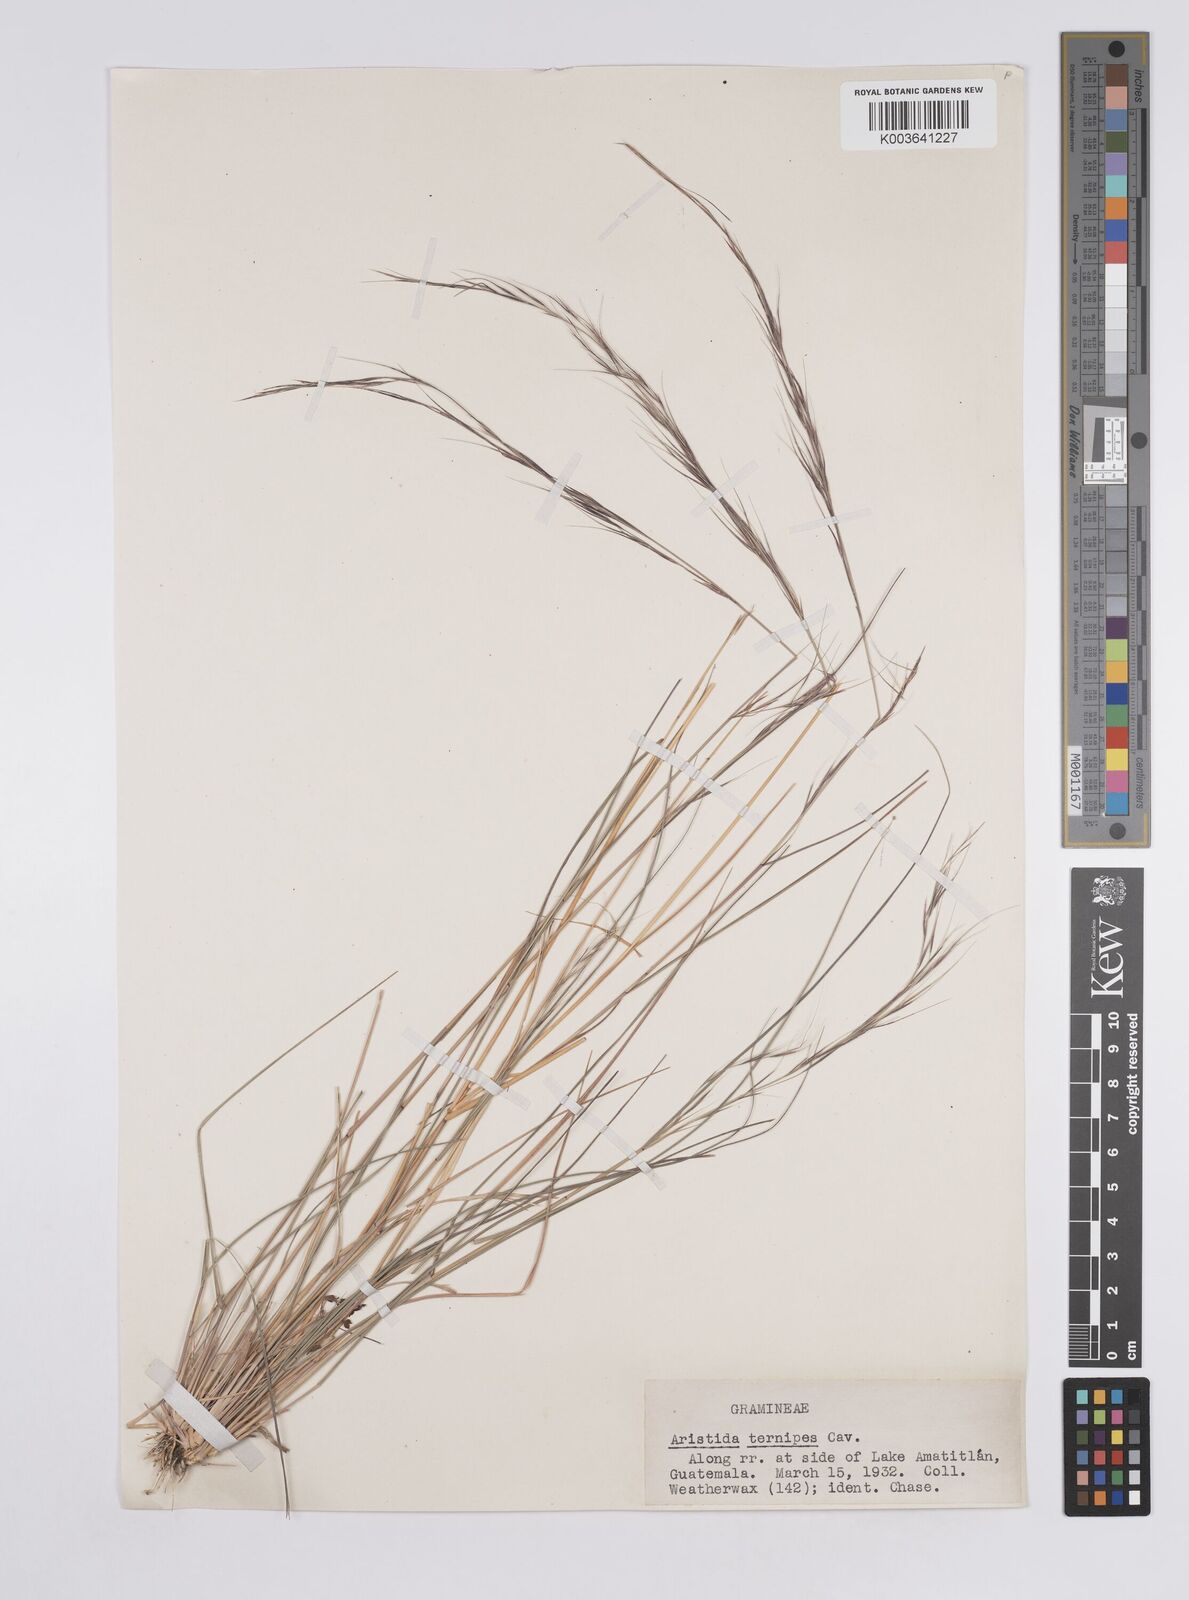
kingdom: Plantae
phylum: Tracheophyta
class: Liliopsida
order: Poales
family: Poaceae
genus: Aristida
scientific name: Aristida
